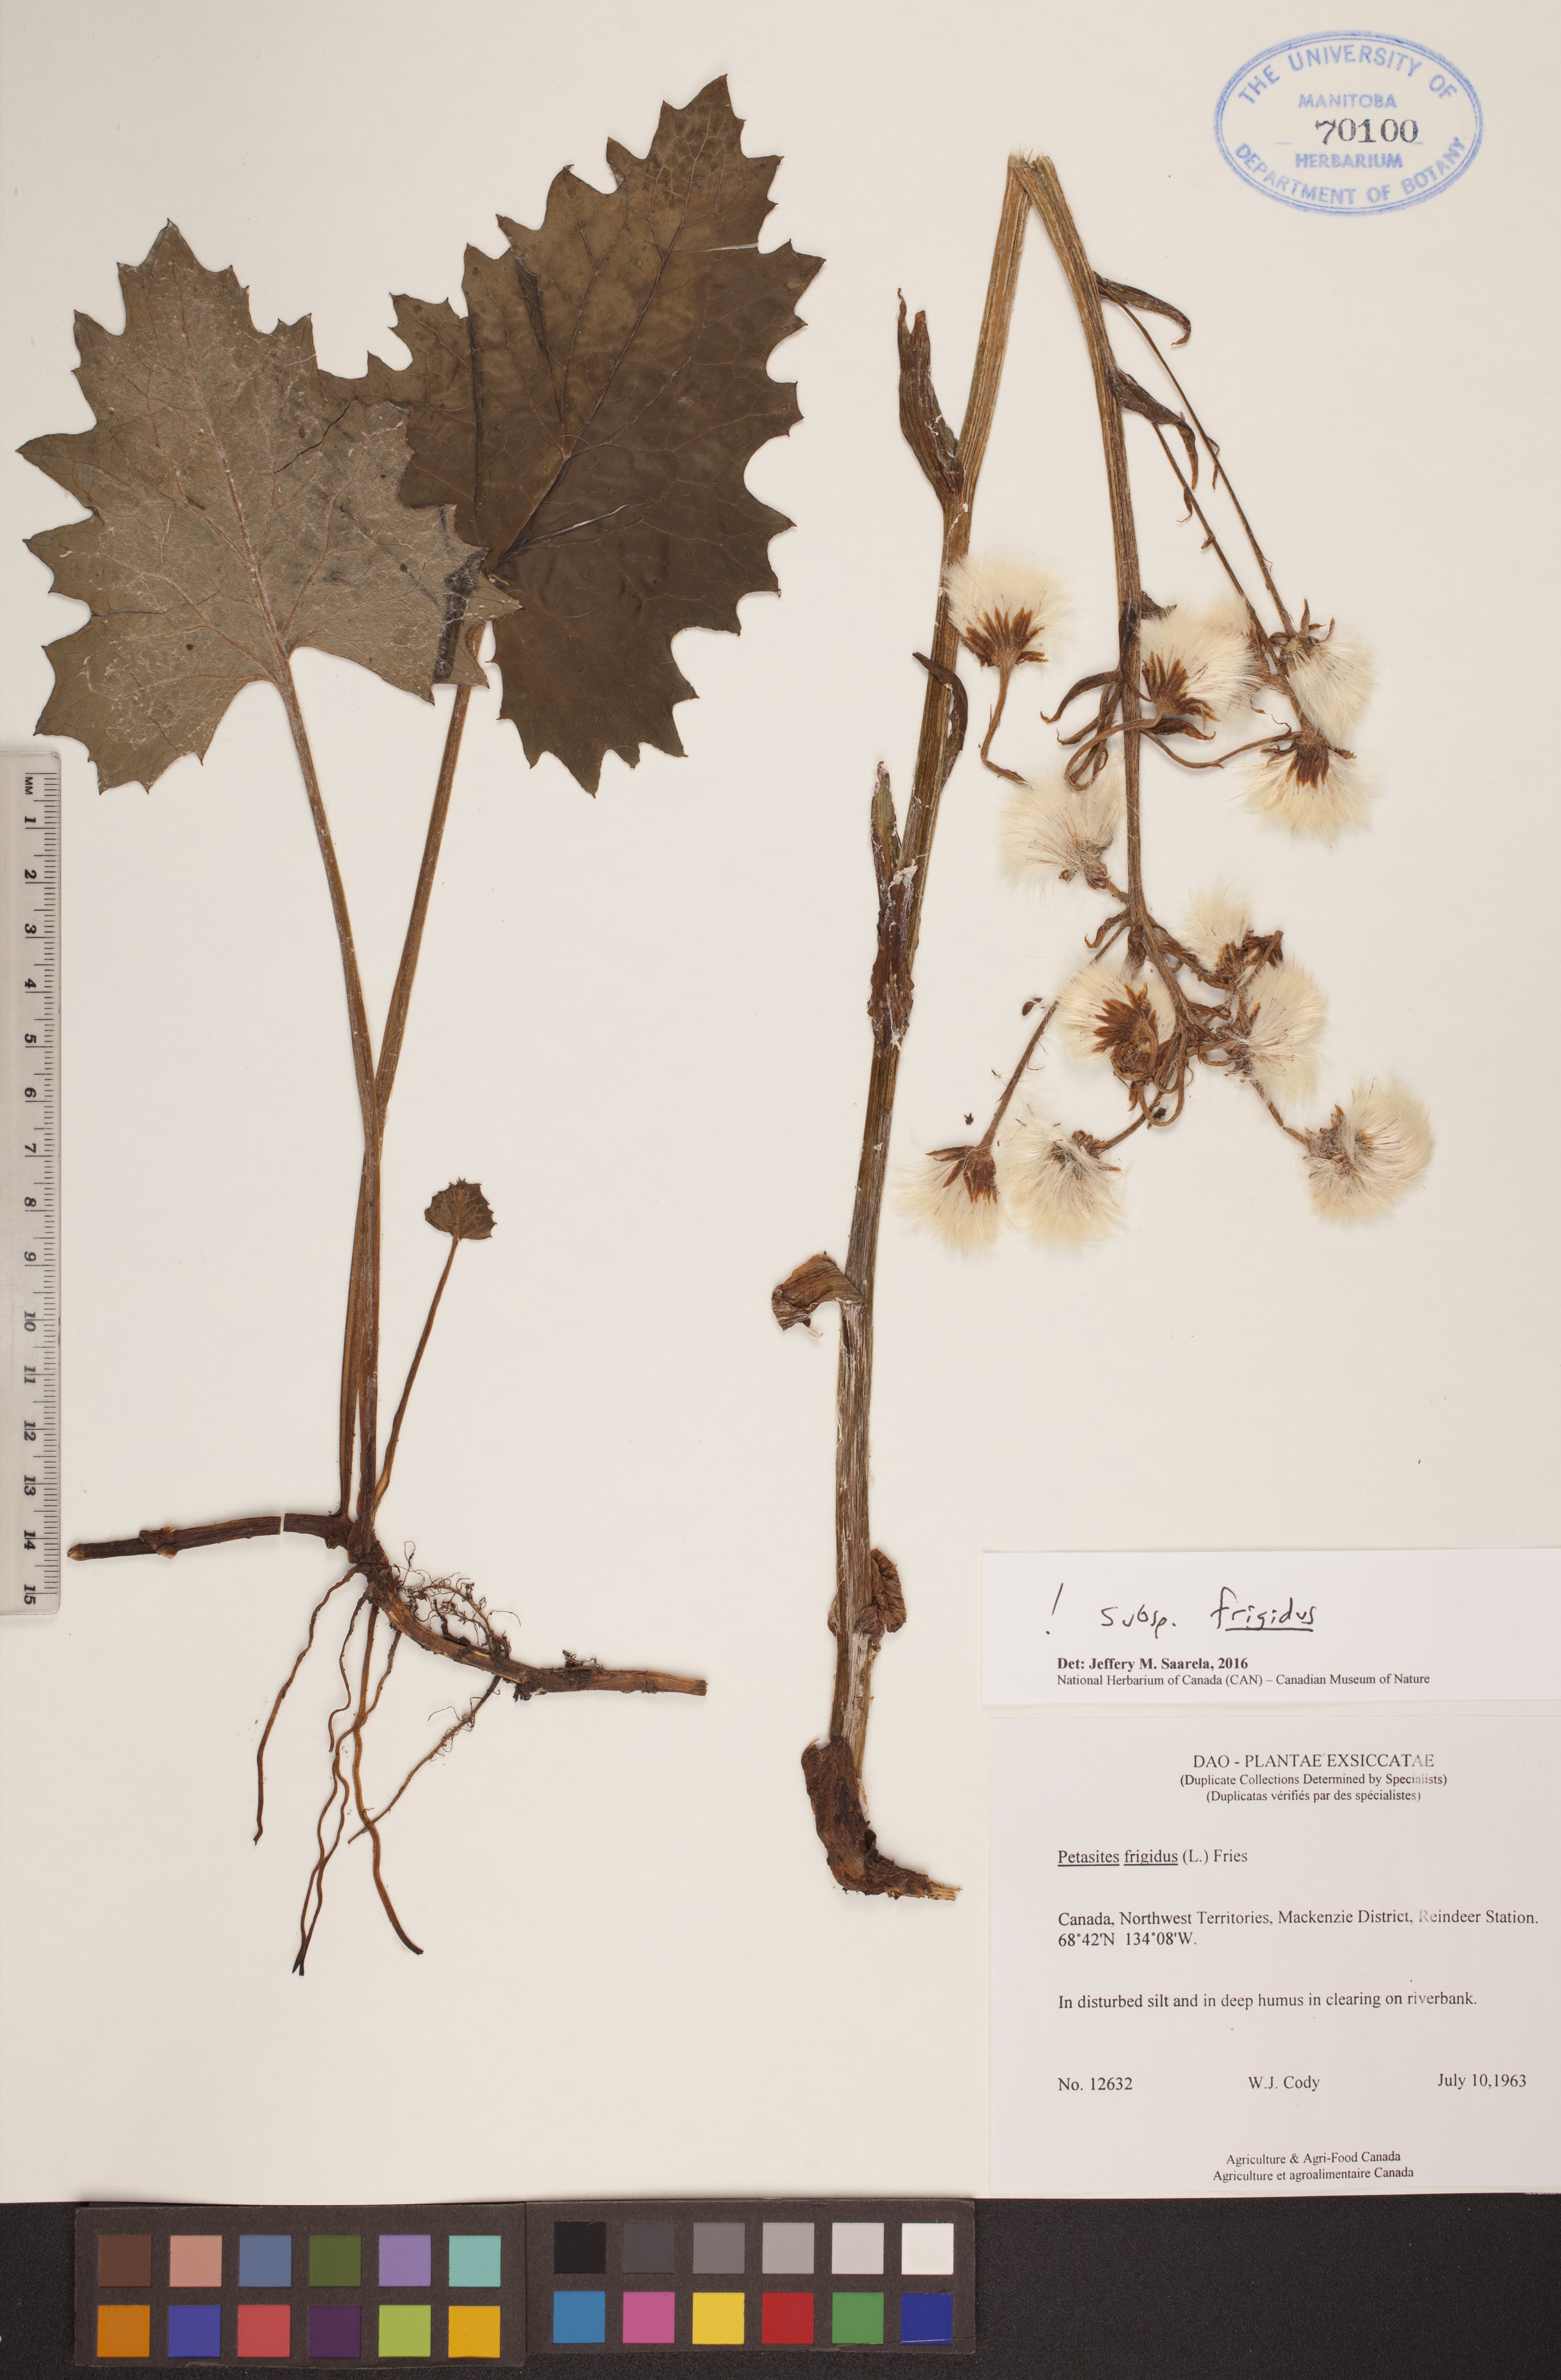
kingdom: Plantae
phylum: Tracheophyta
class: Magnoliopsida
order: Asterales
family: Asteraceae
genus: Petasites
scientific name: Petasites frigidus
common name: Arctic butterbur
